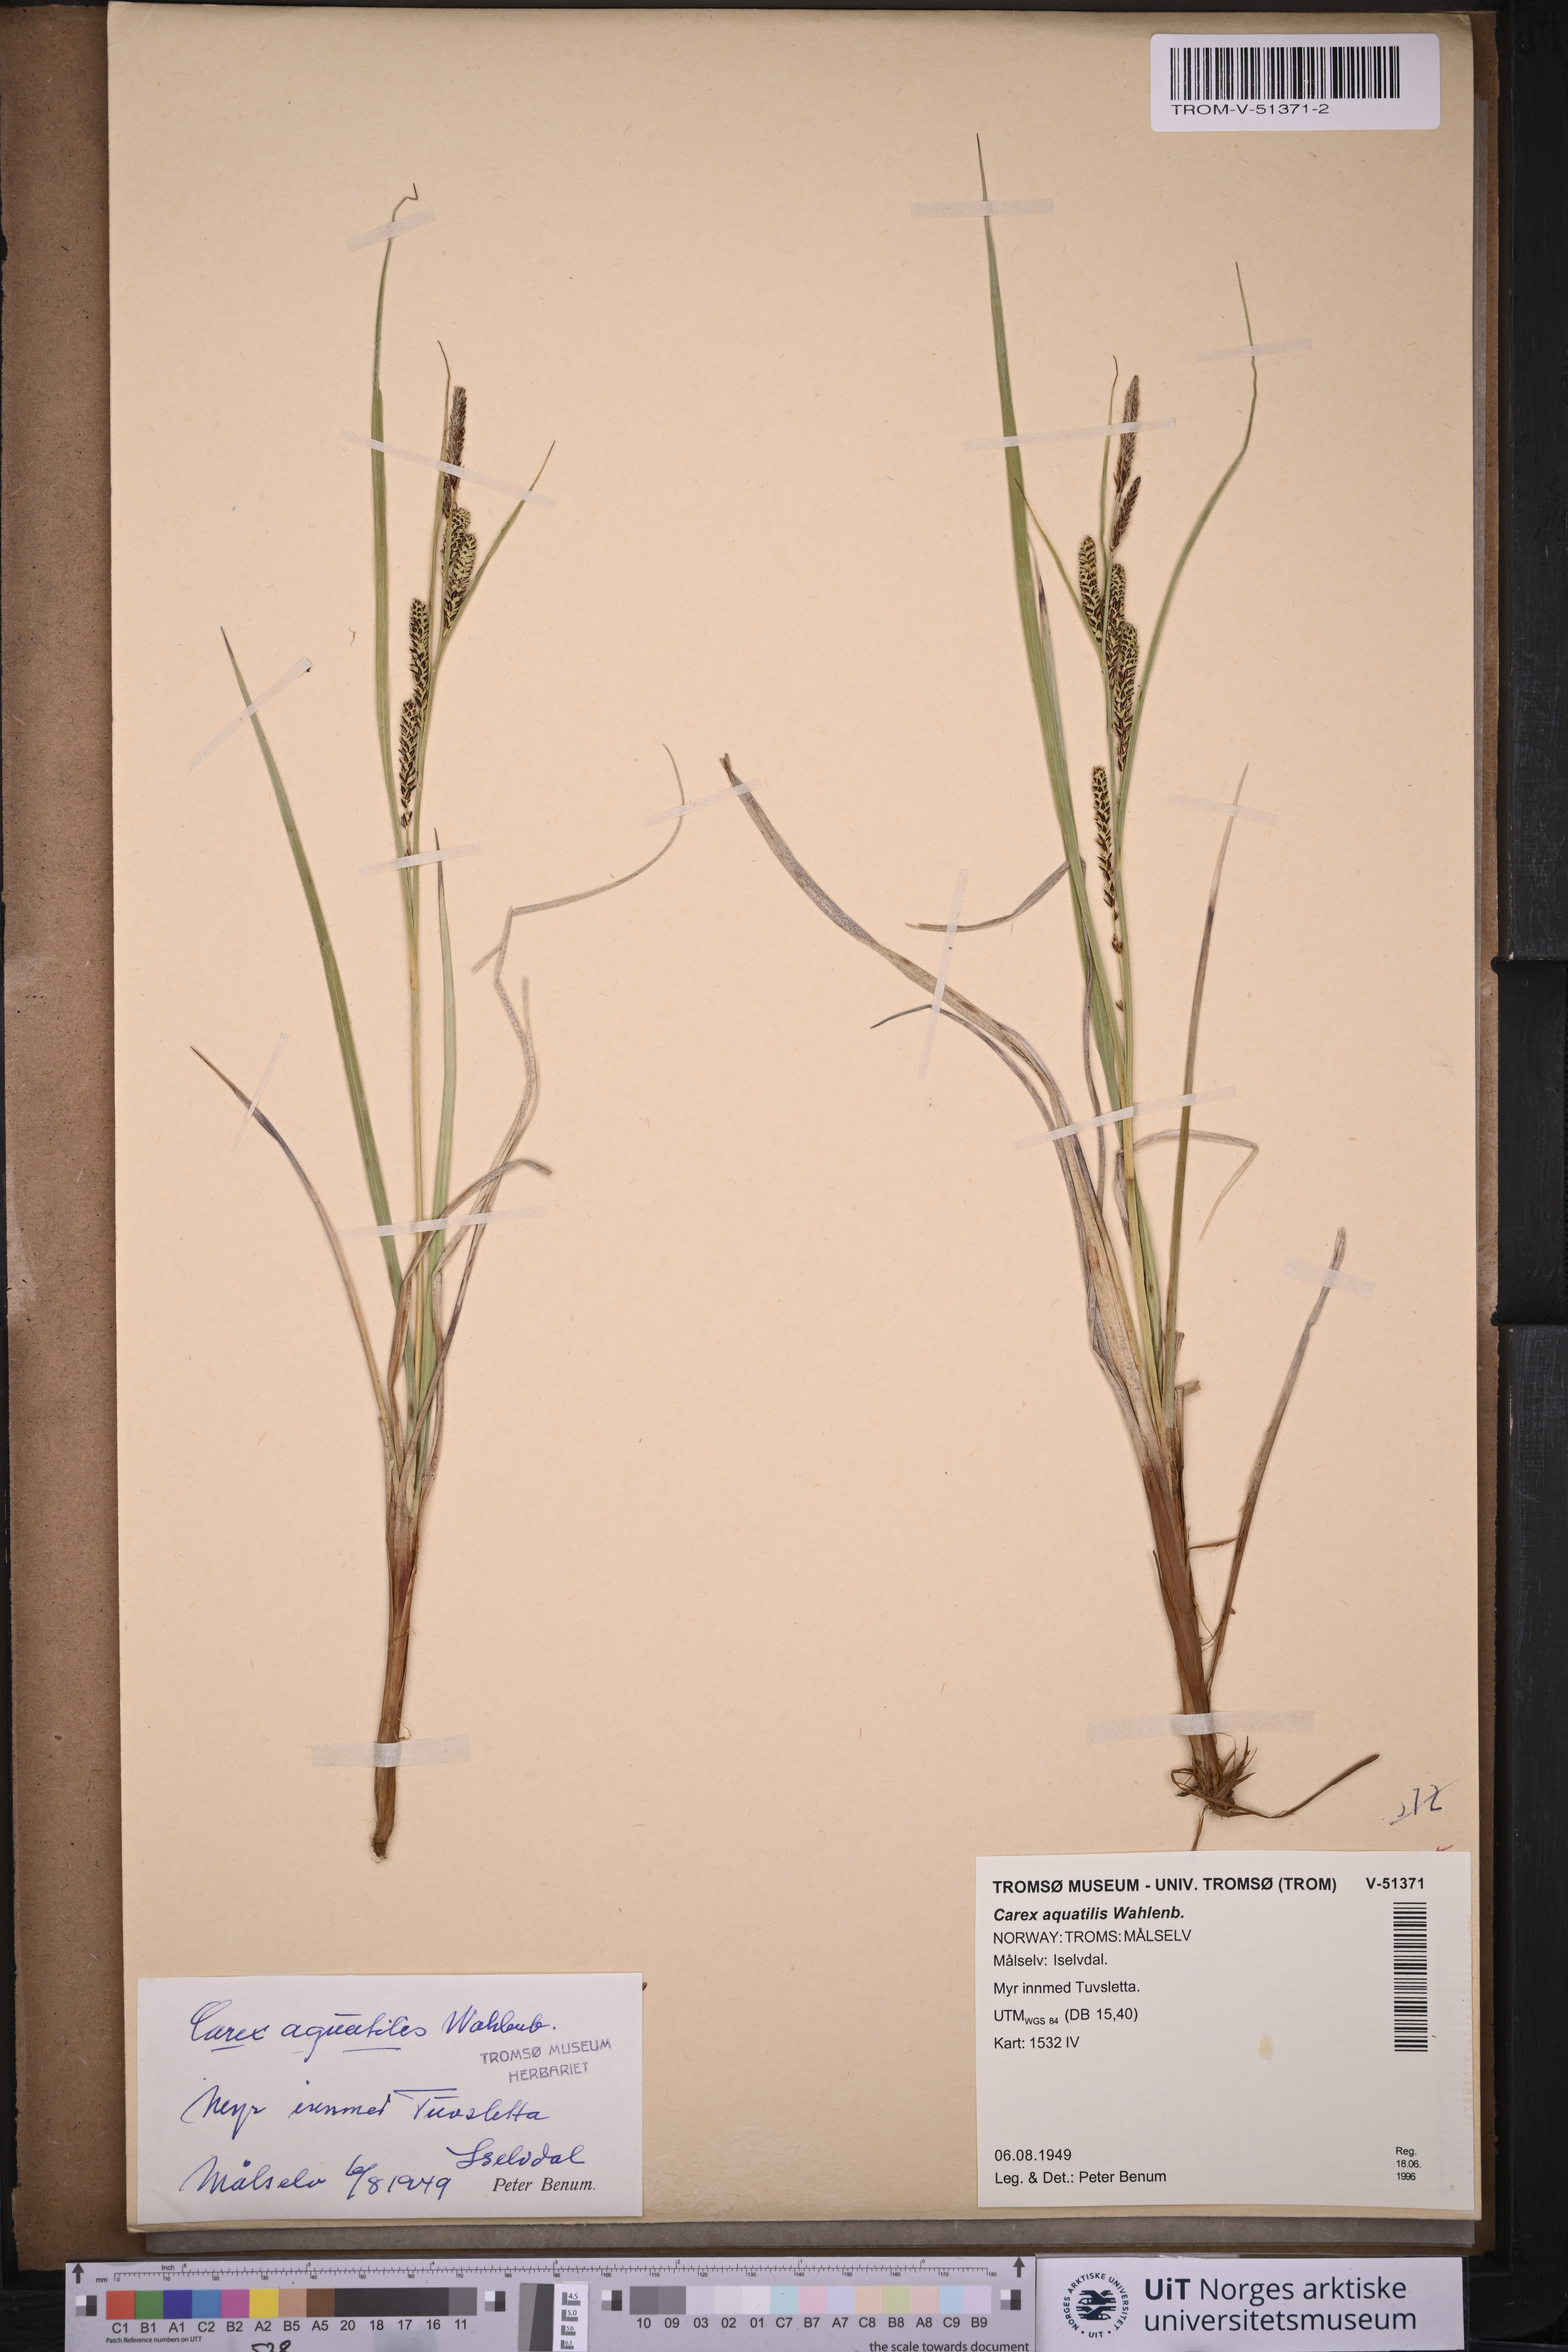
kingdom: Plantae
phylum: Tracheophyta
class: Liliopsida
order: Poales
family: Cyperaceae
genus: Carex
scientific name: Carex aquatilis
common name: Water sedge
